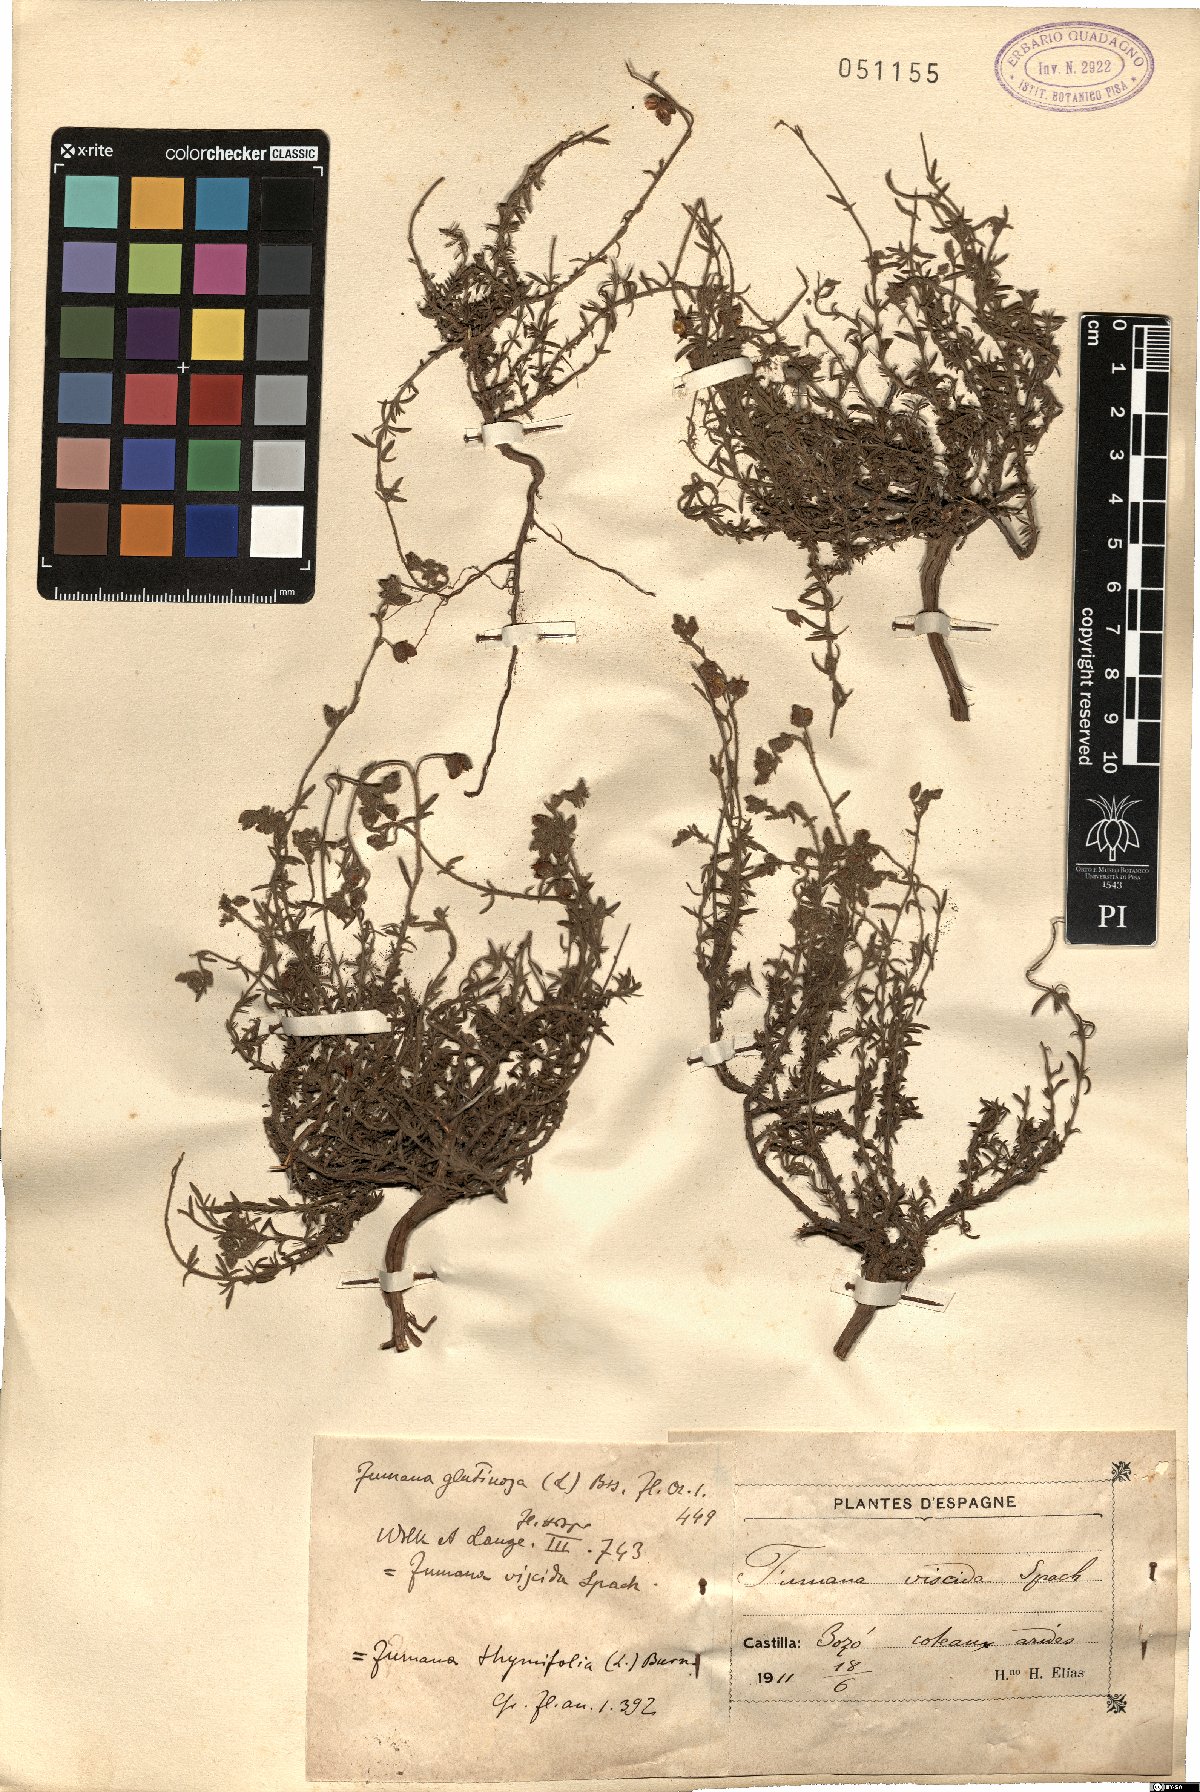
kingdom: Plantae
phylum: Tracheophyta
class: Magnoliopsida
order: Malvales
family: Cistaceae
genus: Fumana
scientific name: Fumana thymifolia
